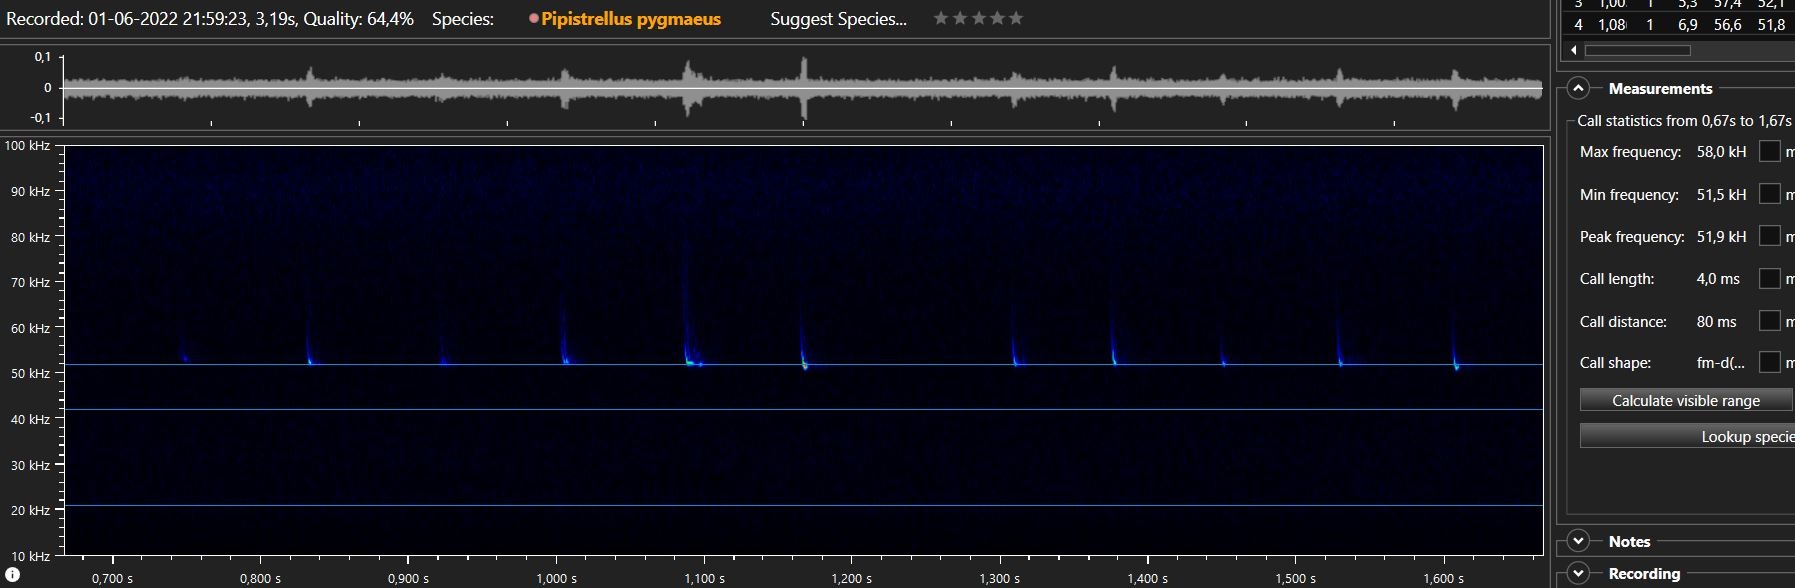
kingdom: Animalia
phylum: Chordata
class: Mammalia
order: Chiroptera
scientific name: Chiroptera
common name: Flagermus
